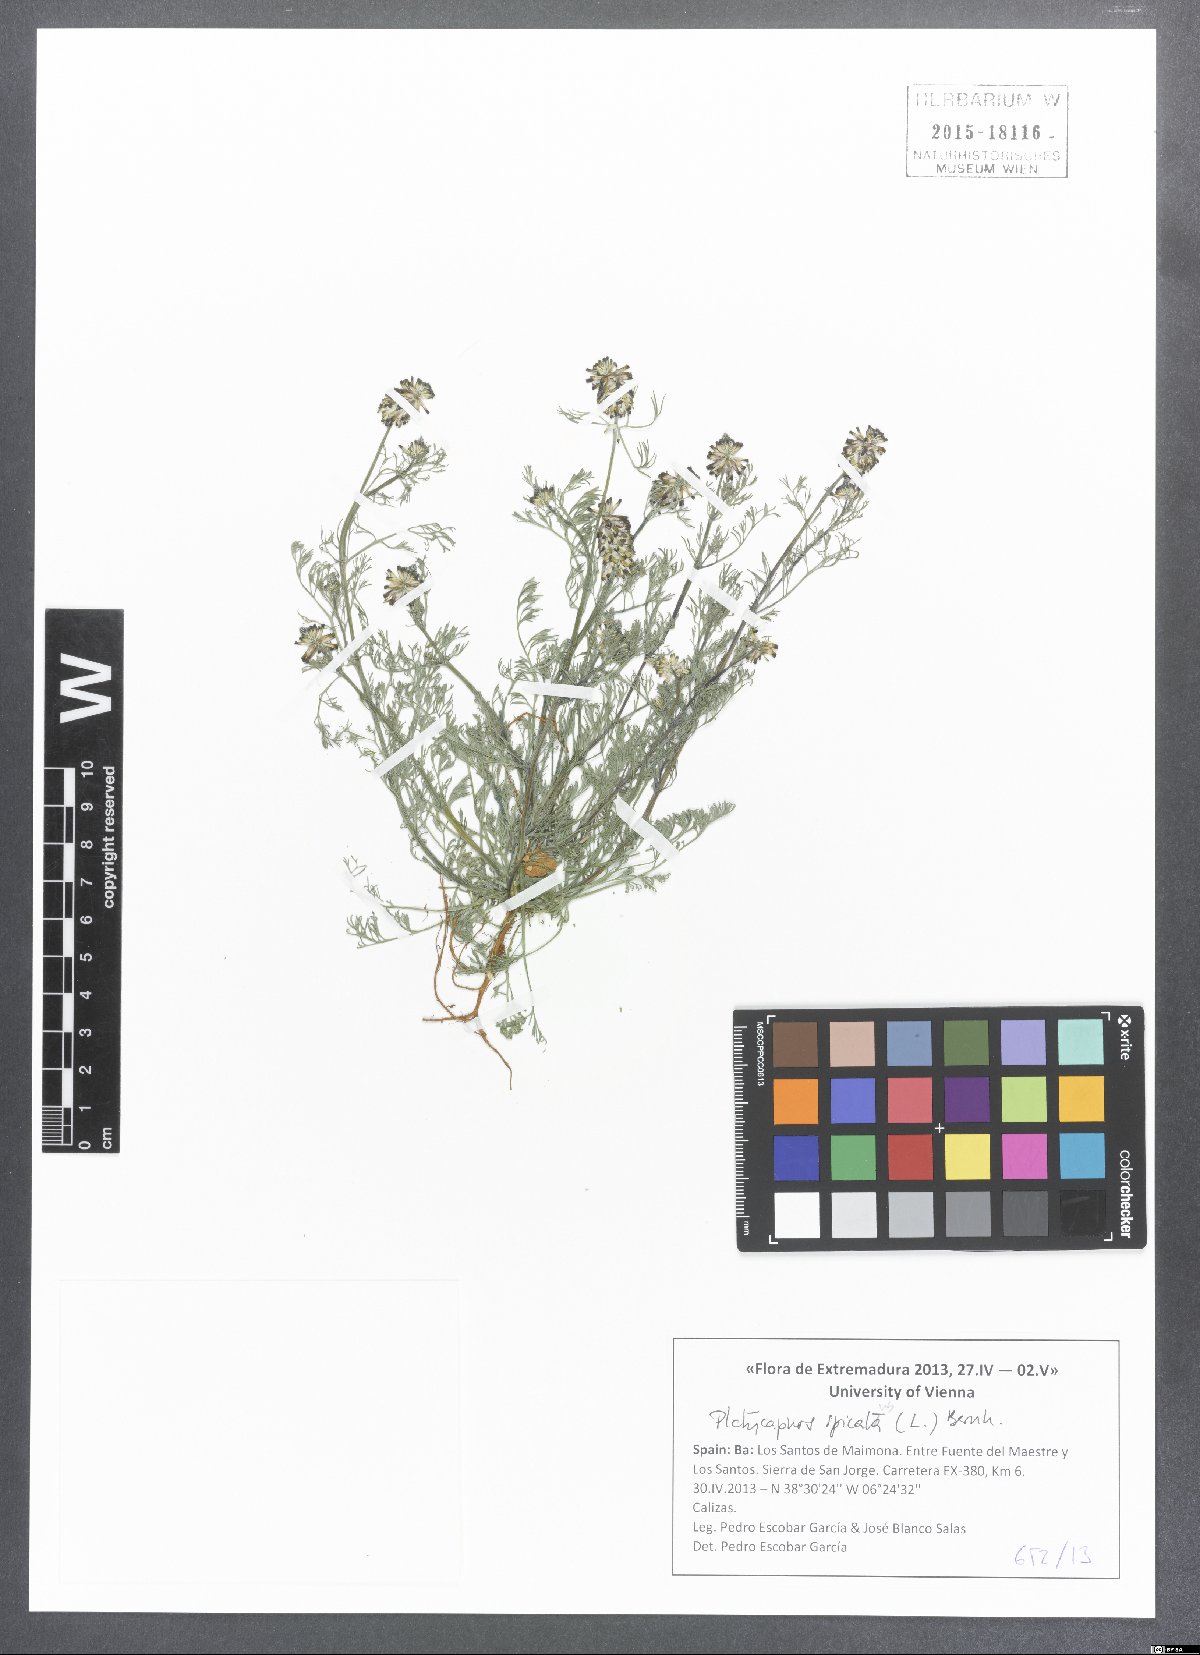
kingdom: Plantae
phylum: Tracheophyta
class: Magnoliopsida
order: Ranunculales
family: Papaveraceae
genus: Platycapnos
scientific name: Platycapnos
